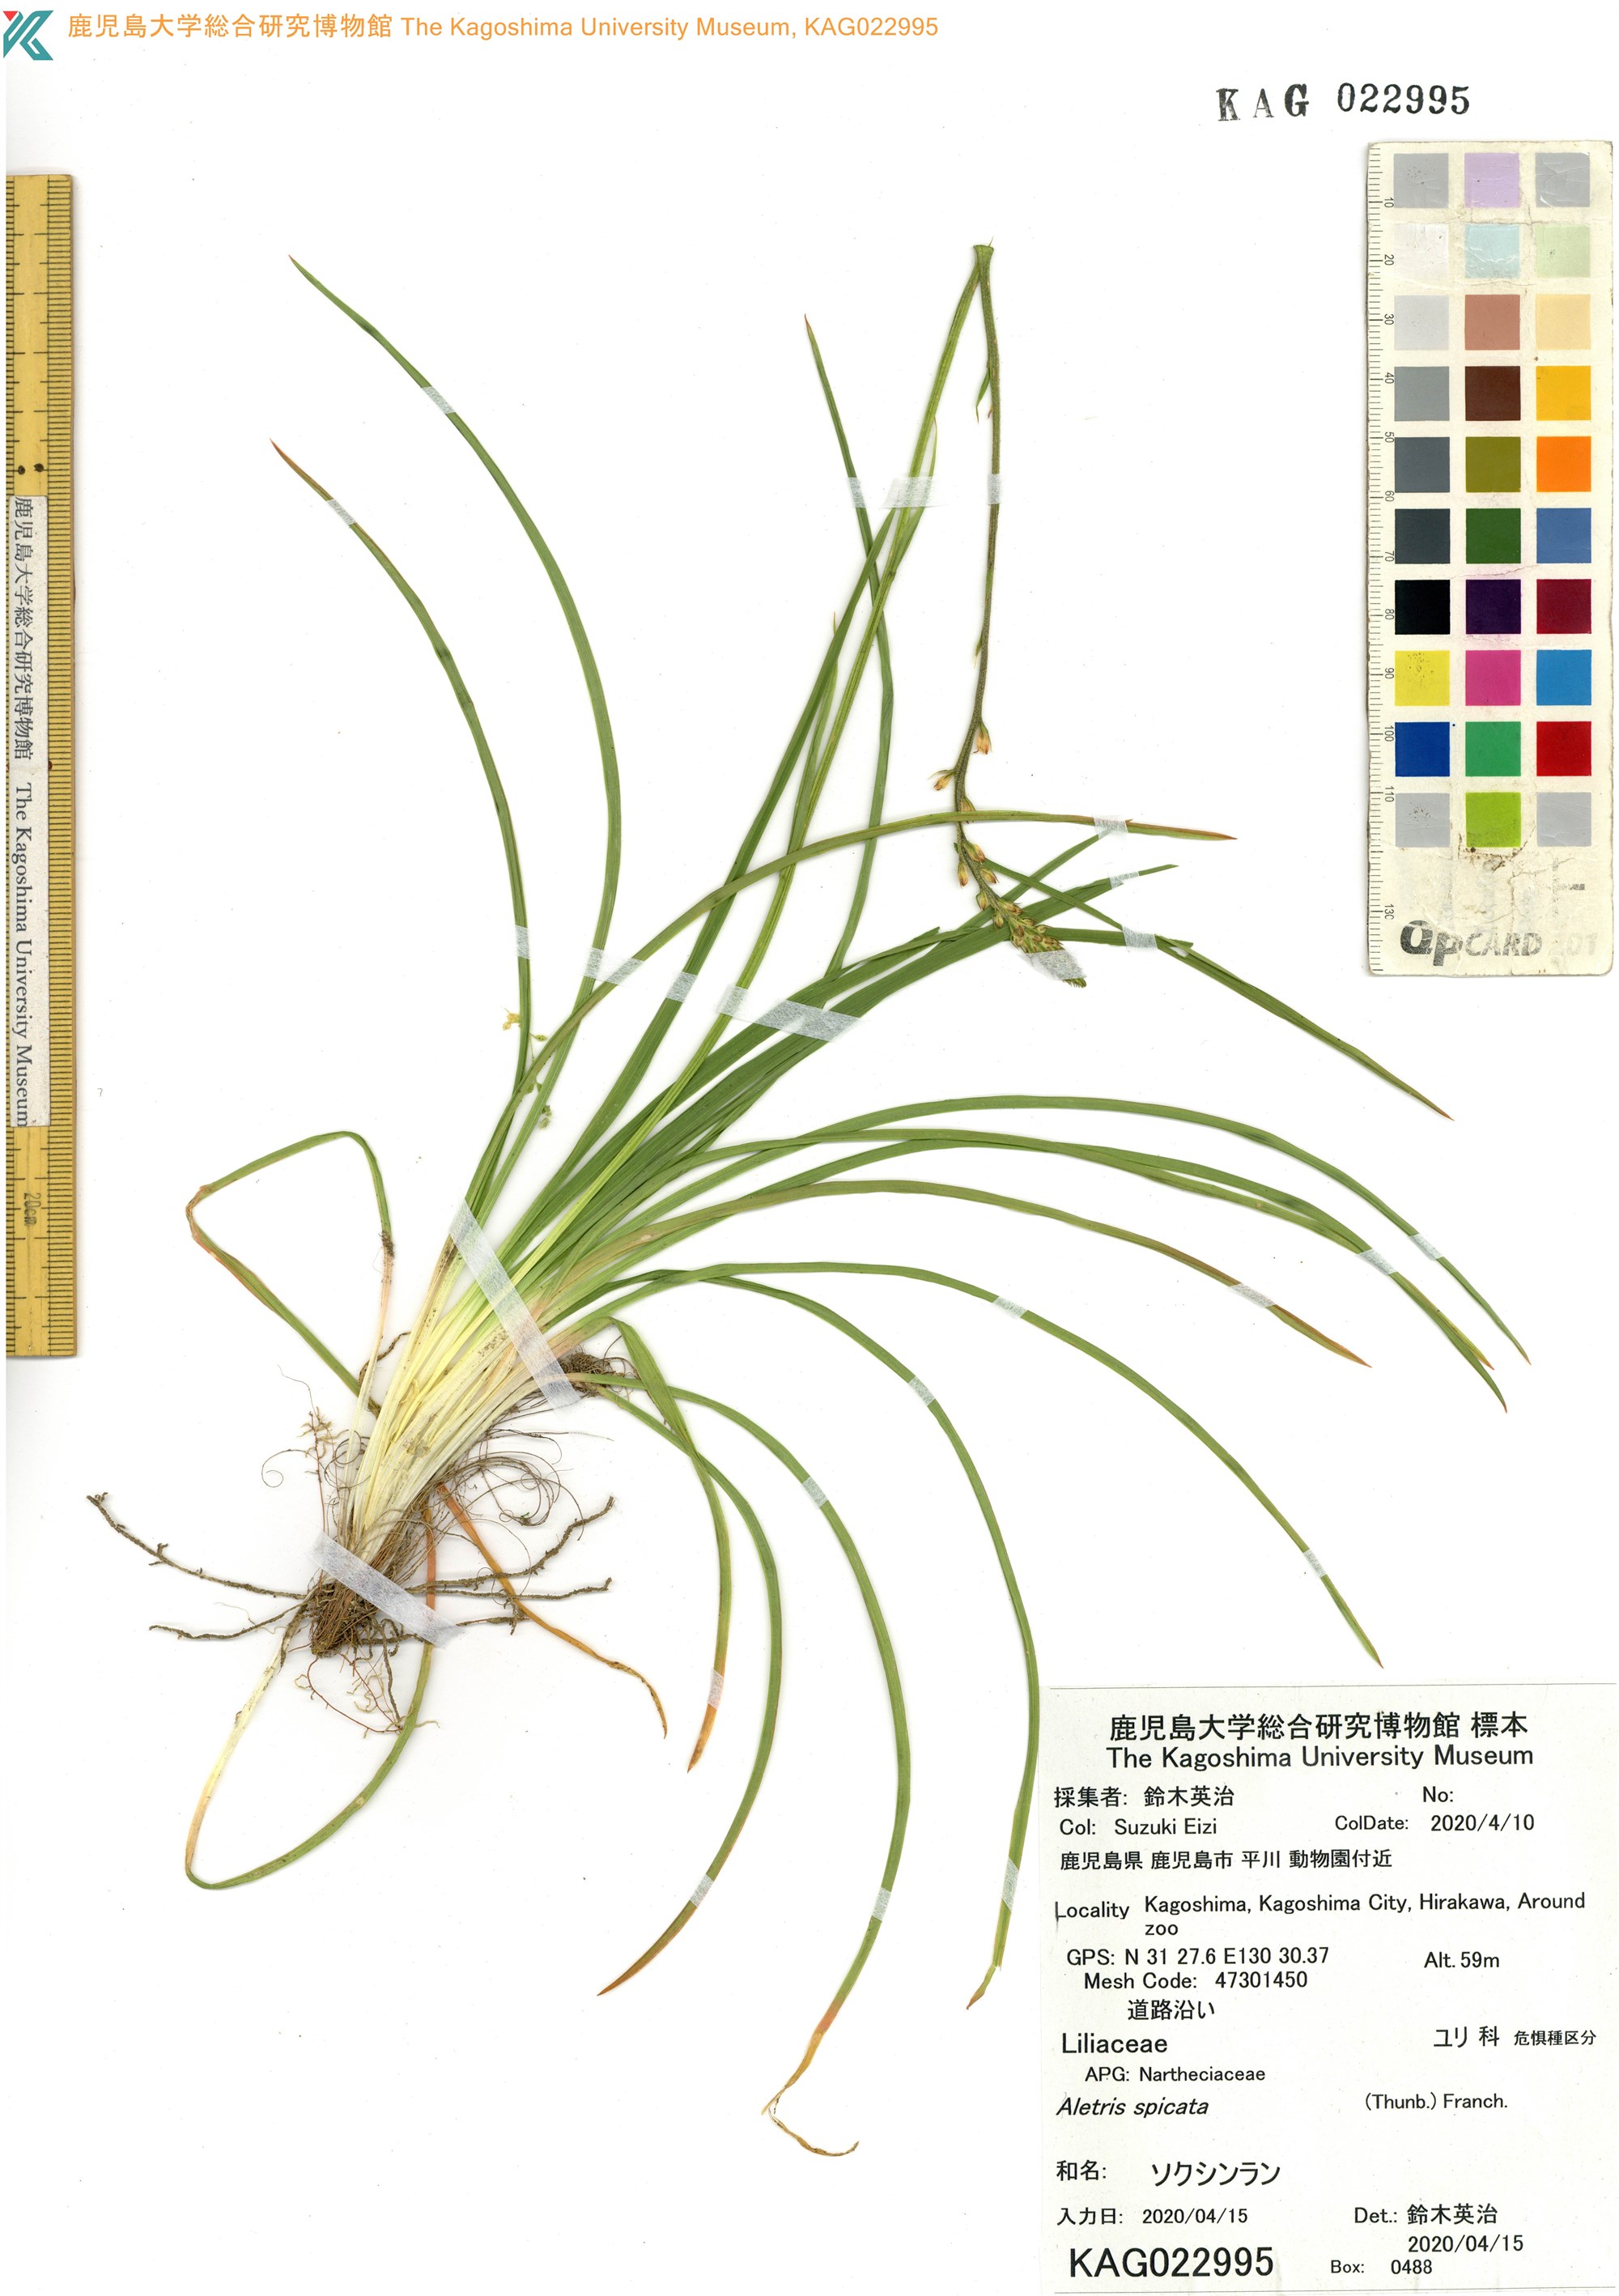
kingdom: Plantae
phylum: Tracheophyta
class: Liliopsida
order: Dioscoreales
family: Nartheciaceae
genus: Aletris
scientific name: Aletris spicata
